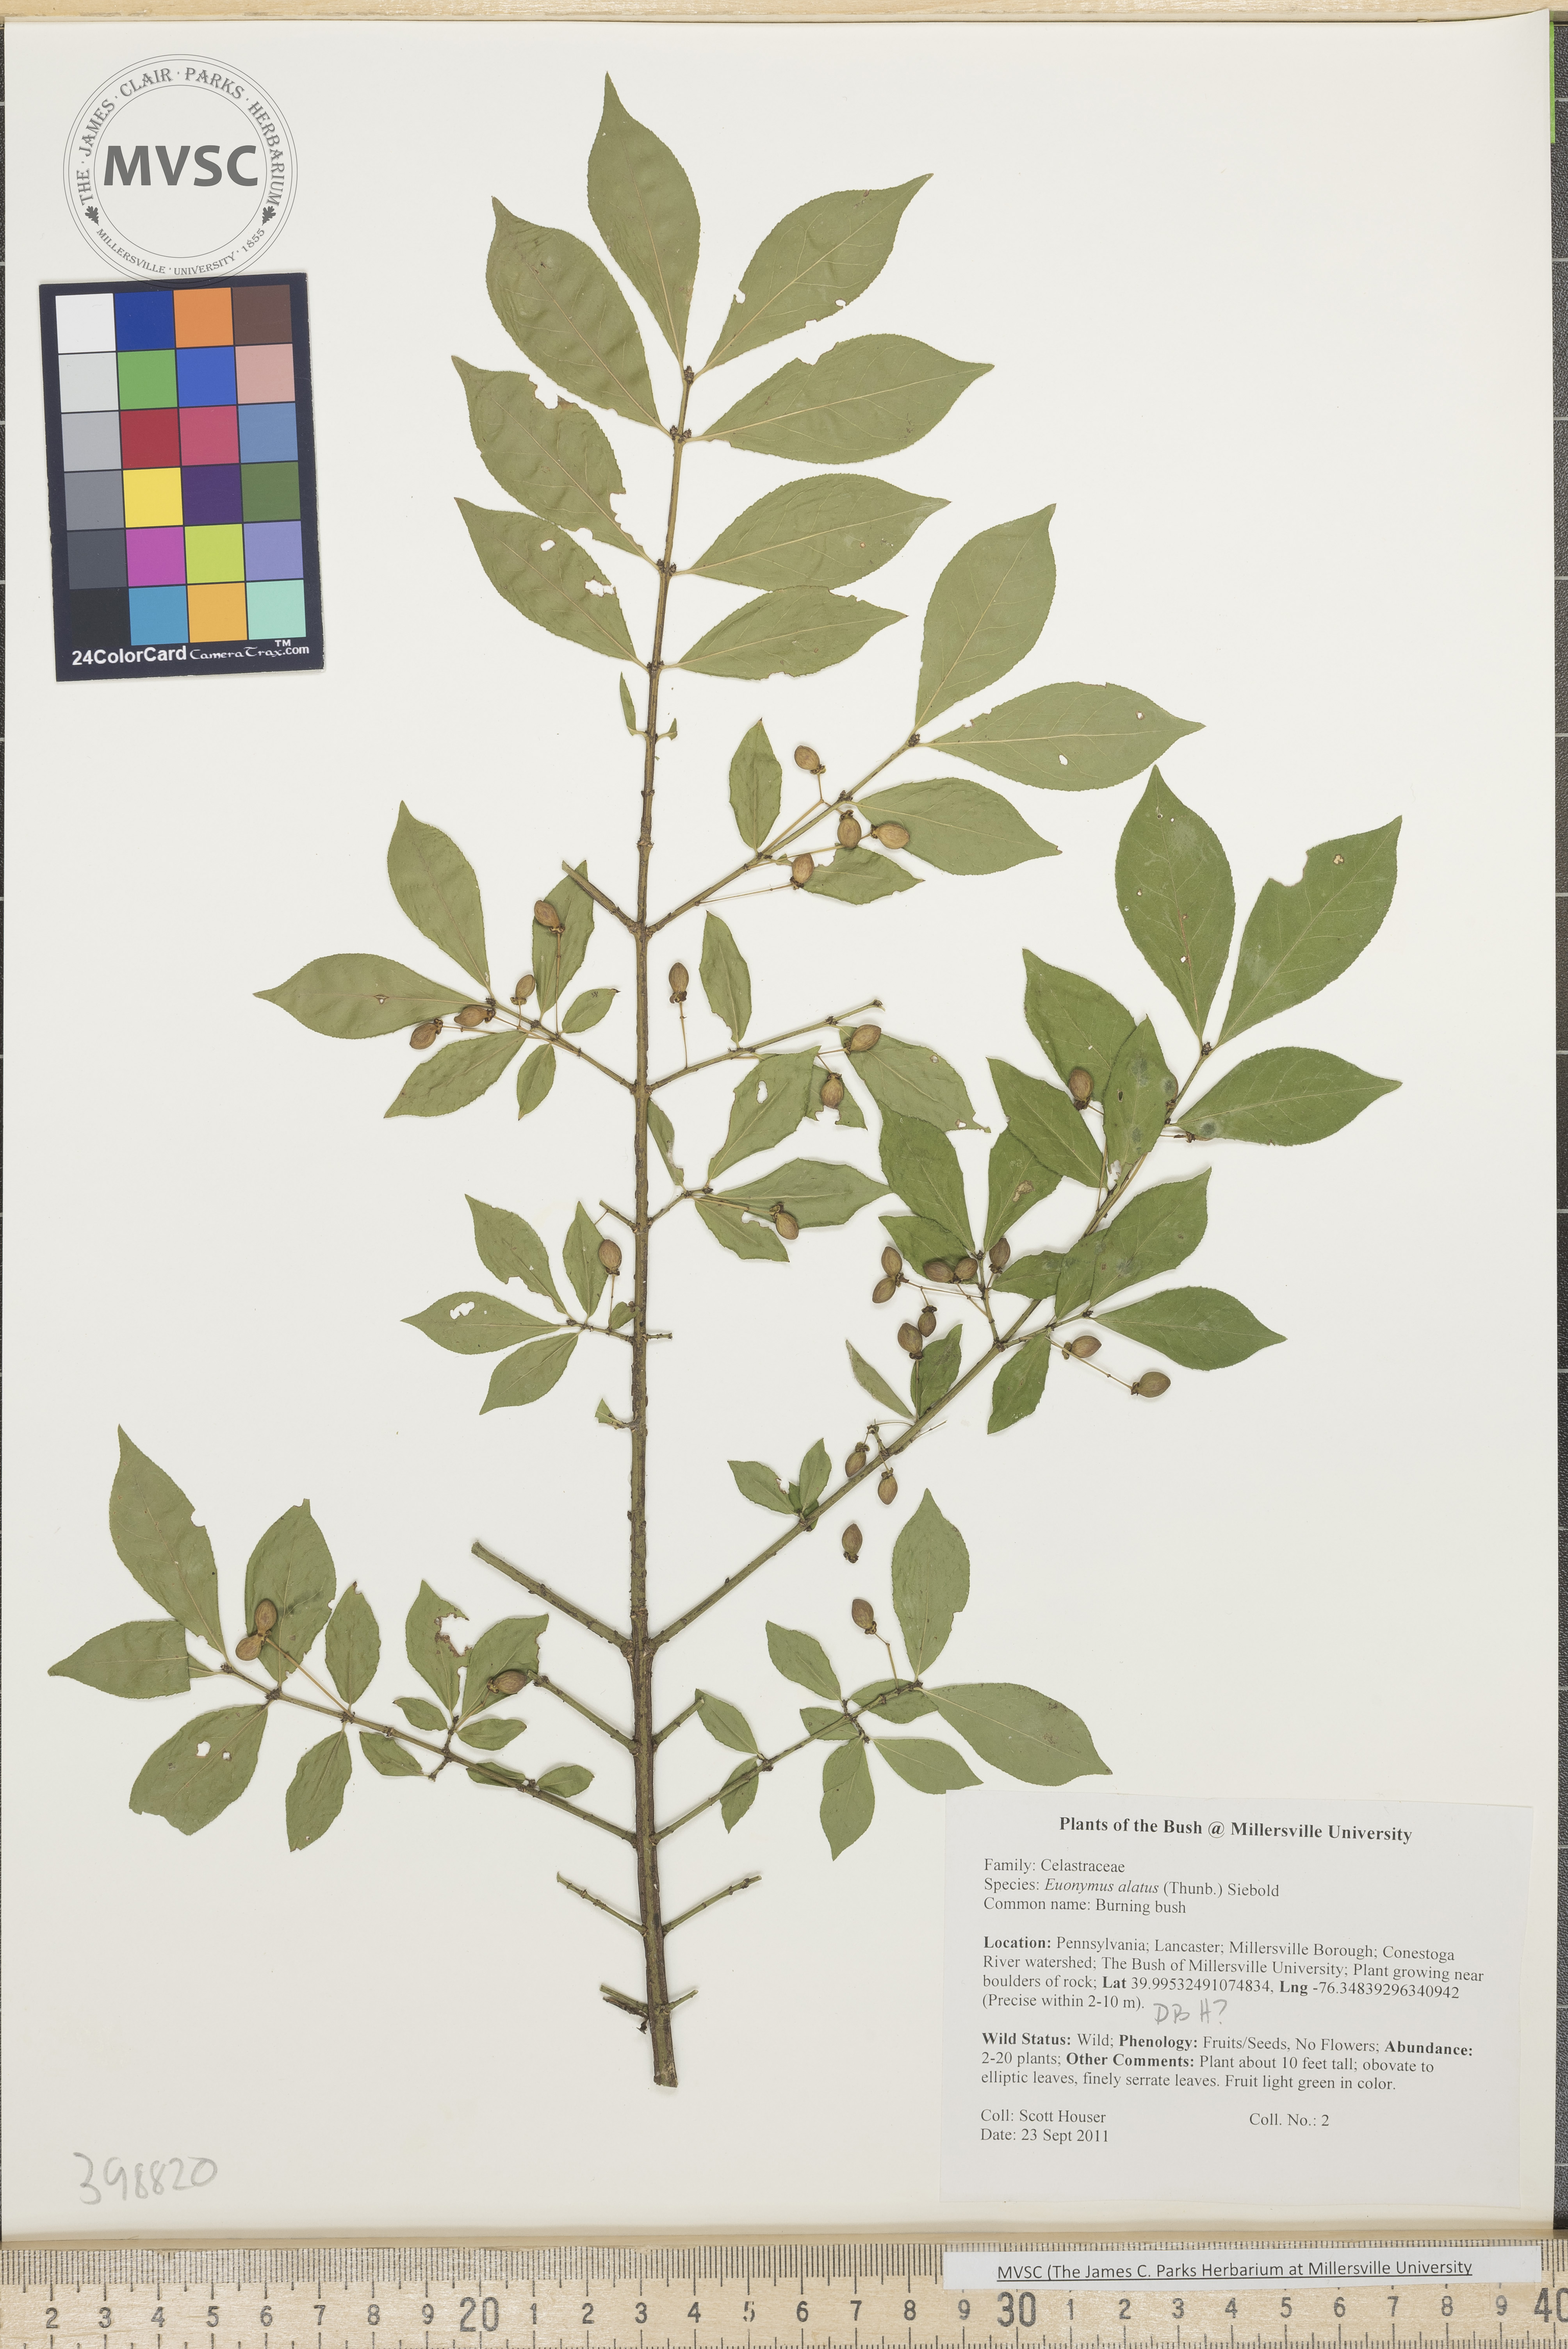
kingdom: Plantae
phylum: Tracheophyta
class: Magnoliopsida
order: Celastrales
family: Celastraceae
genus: Euonymus
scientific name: Euonymus alatus
